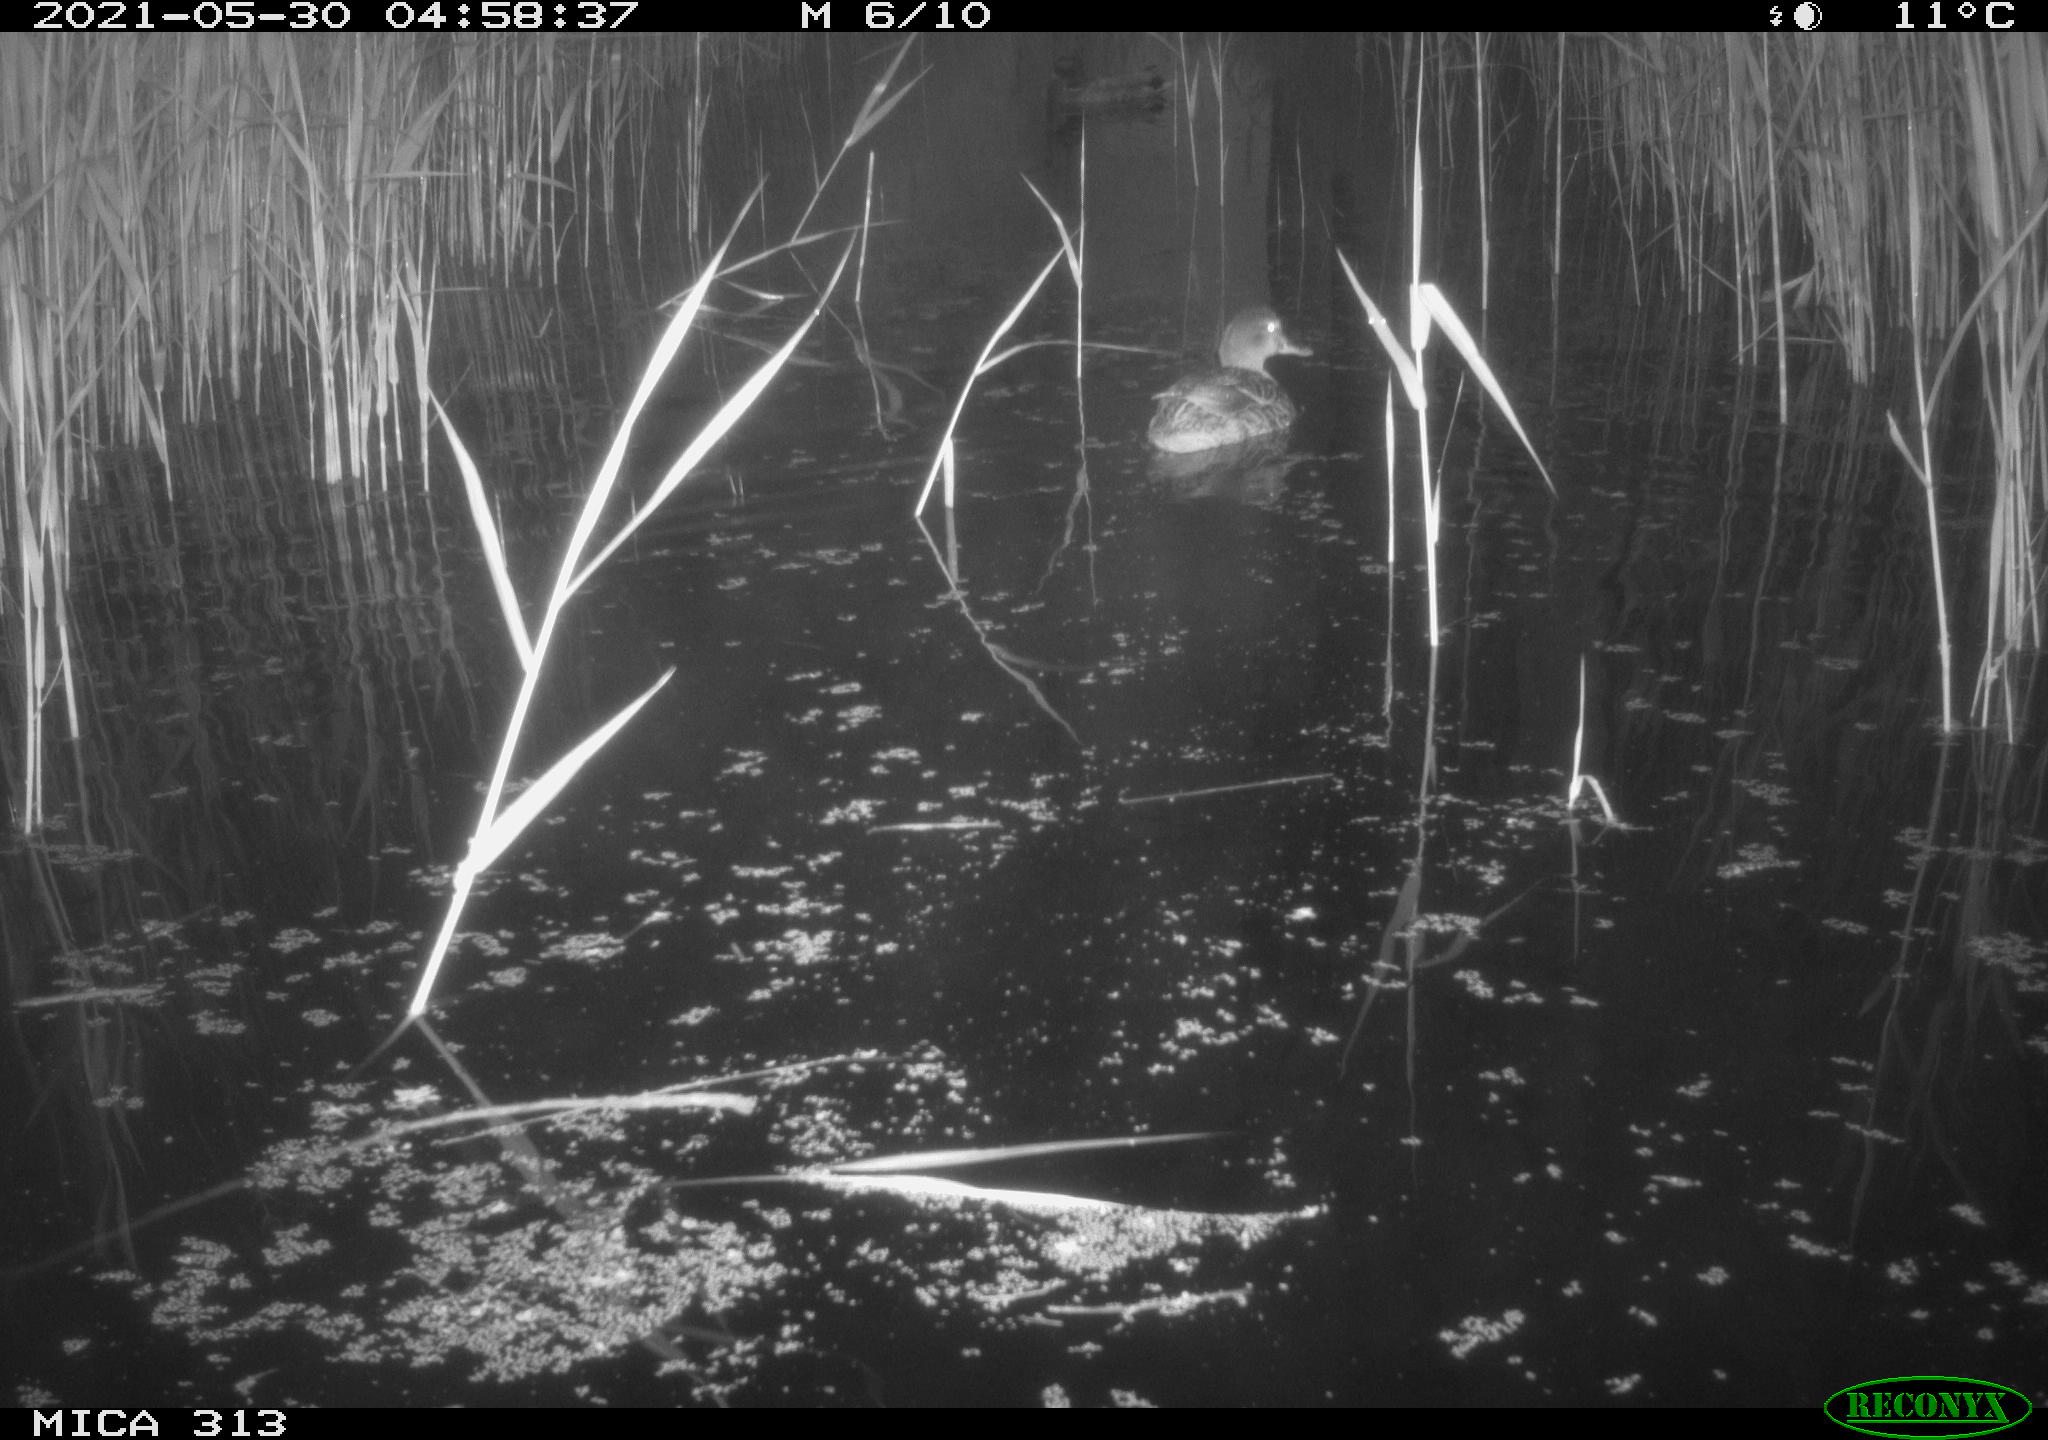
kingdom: Animalia
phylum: Chordata
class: Aves
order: Anseriformes
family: Anatidae
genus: Anas
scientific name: Anas platyrhynchos
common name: Mallard
